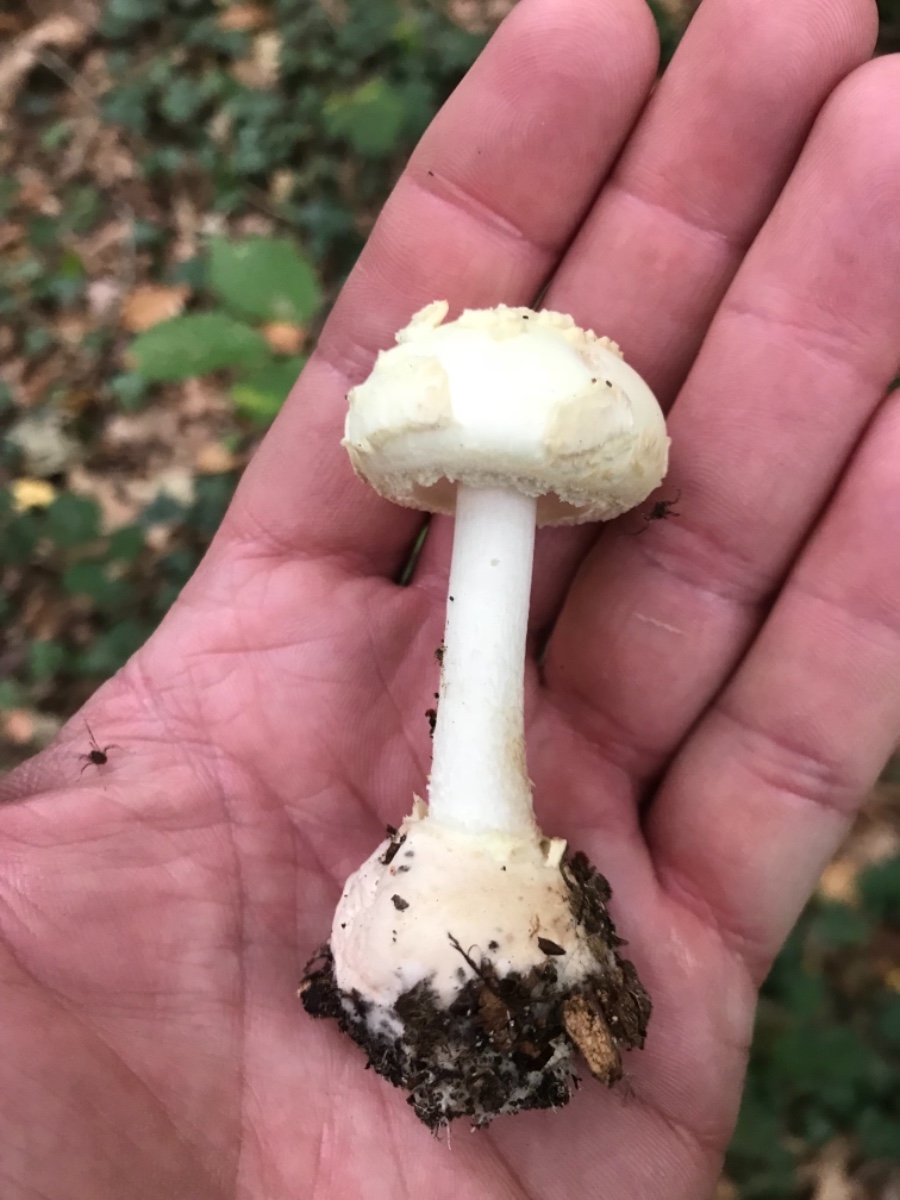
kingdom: Fungi
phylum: Basidiomycota
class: Agaricomycetes
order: Agaricales
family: Amanitaceae
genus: Amanita
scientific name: Amanita citrina
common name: kugleknoldet fluesvamp
